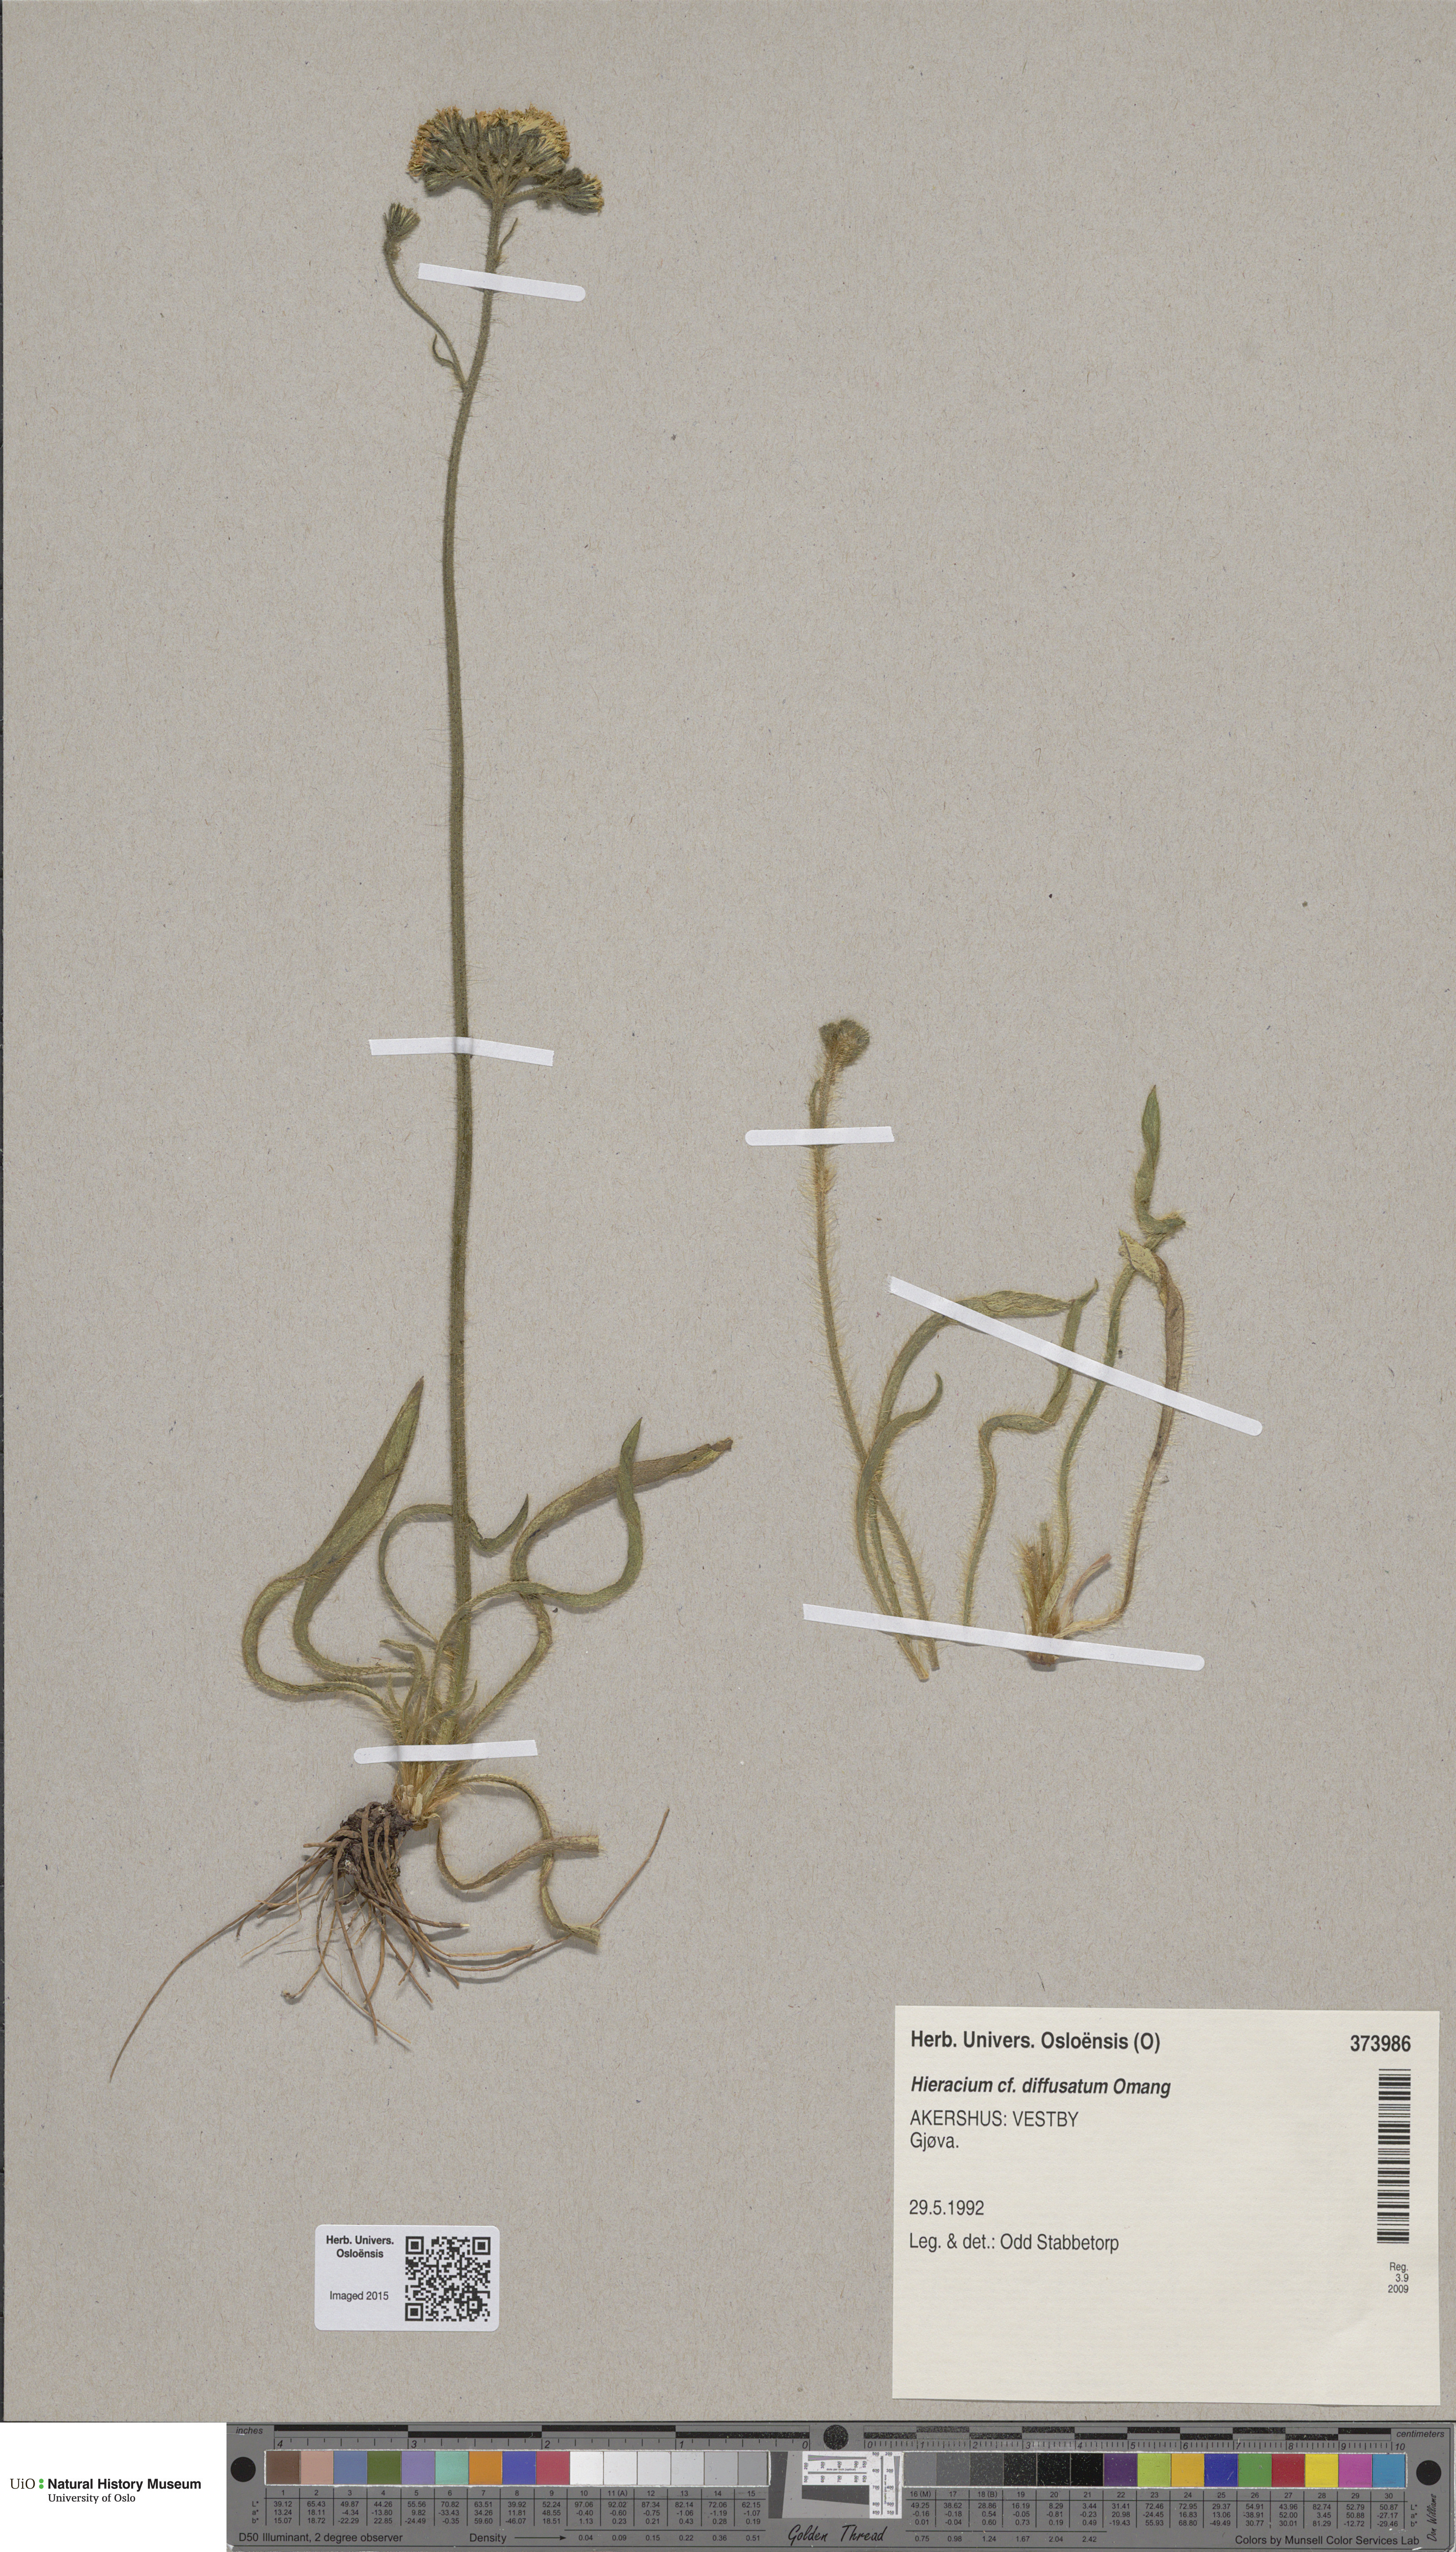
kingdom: Plantae
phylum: Tracheophyta
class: Magnoliopsida
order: Asterales
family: Asteraceae
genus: Pilosella
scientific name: Pilosella dubia
